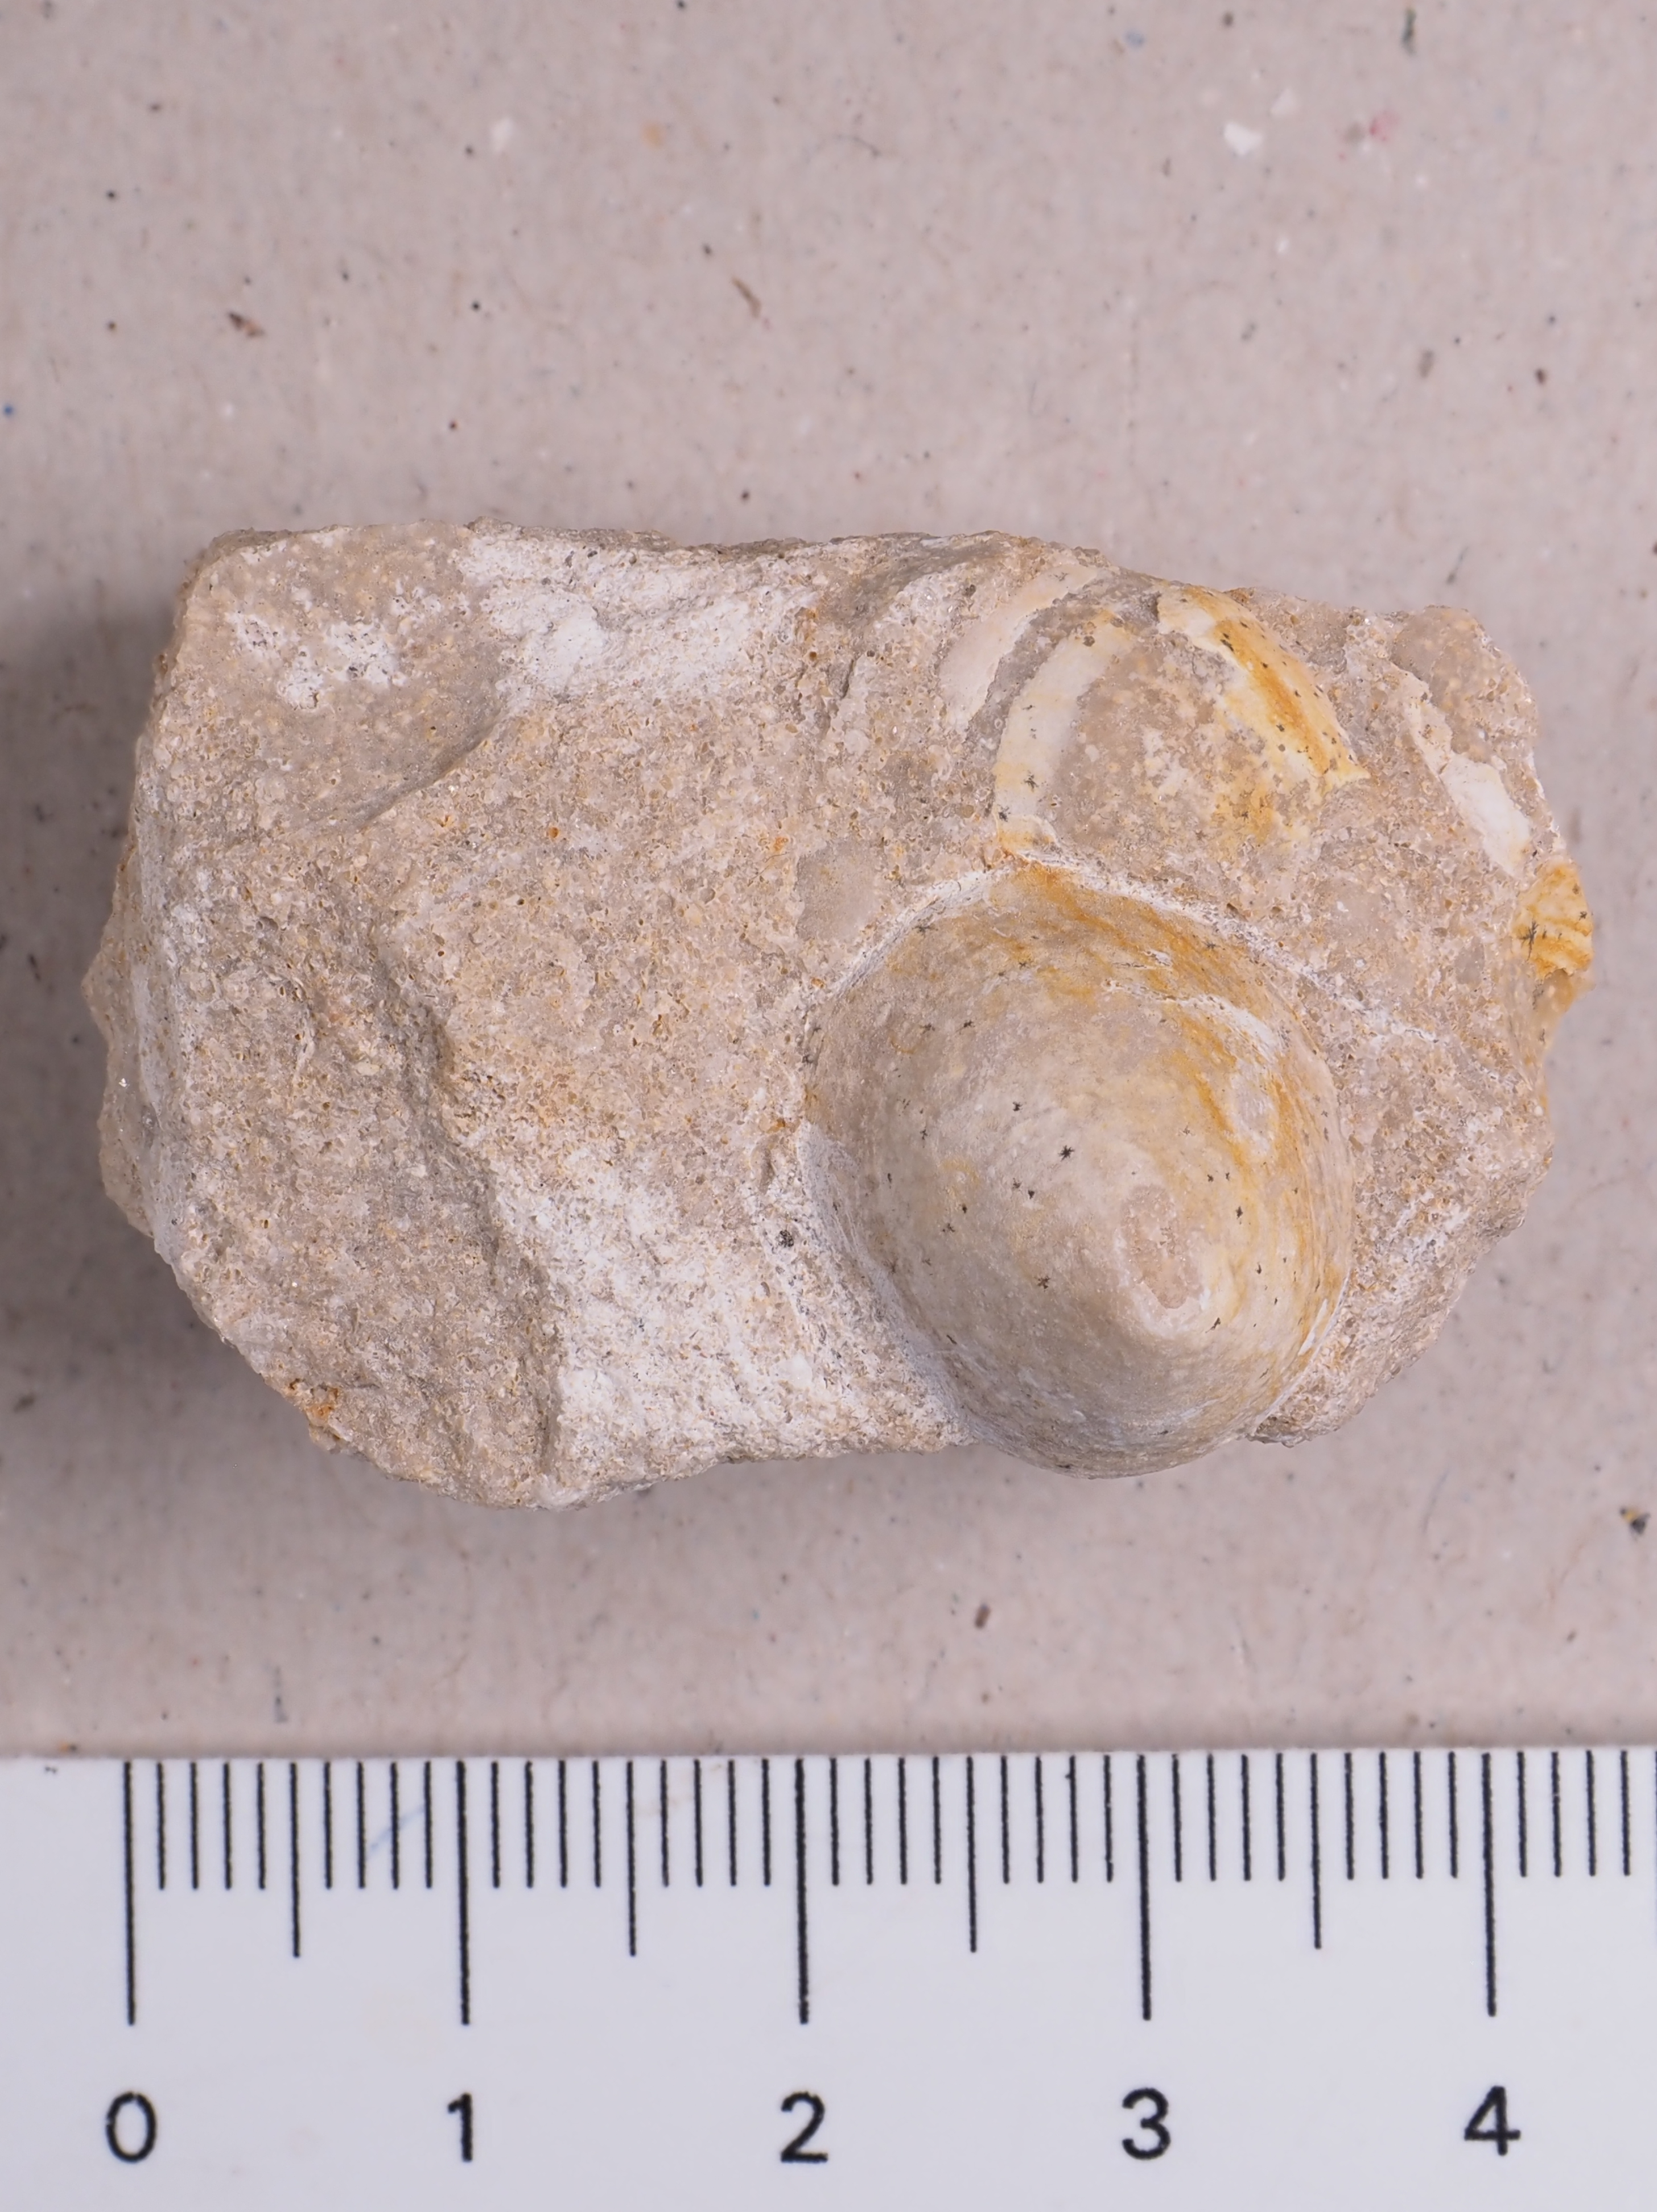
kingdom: Animalia
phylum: Mollusca
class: Gastropoda
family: Acmaeadae
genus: Scurriopsis
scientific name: Scurriopsis
